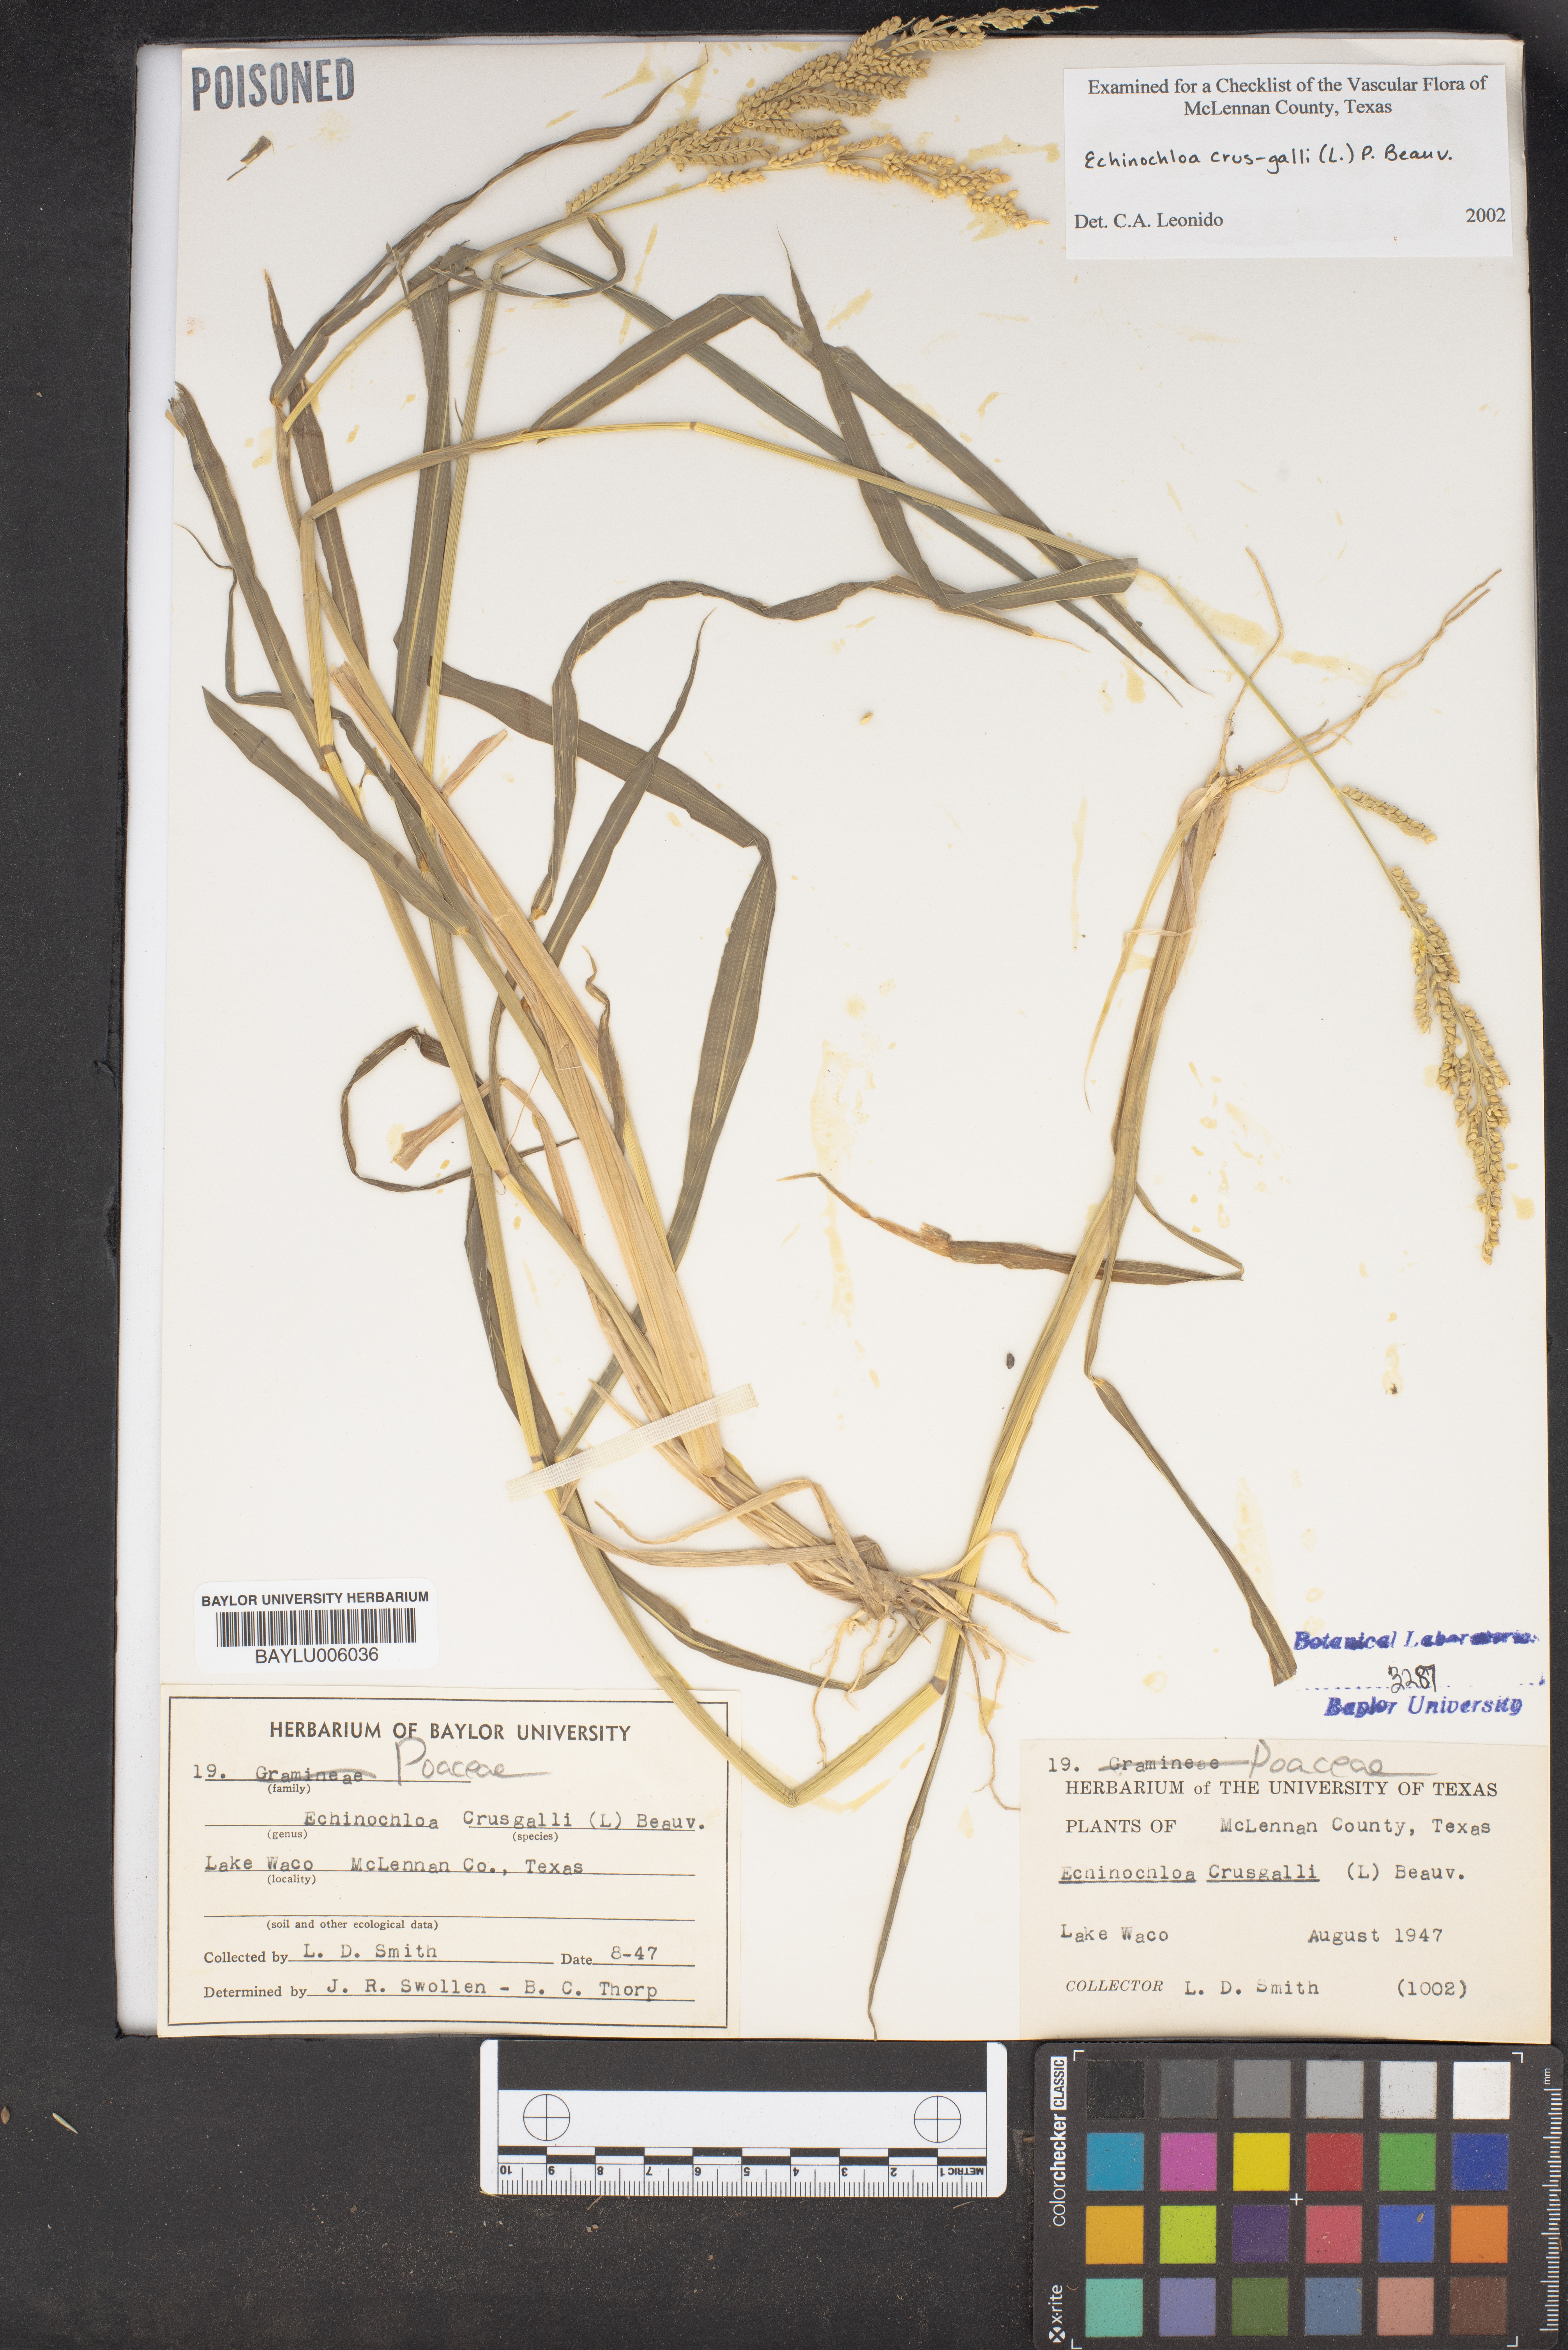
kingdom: Plantae
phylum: Tracheophyta
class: Liliopsida
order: Poales
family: Poaceae
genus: Echinochloa
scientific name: Echinochloa crus-galli
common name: Cockspur
